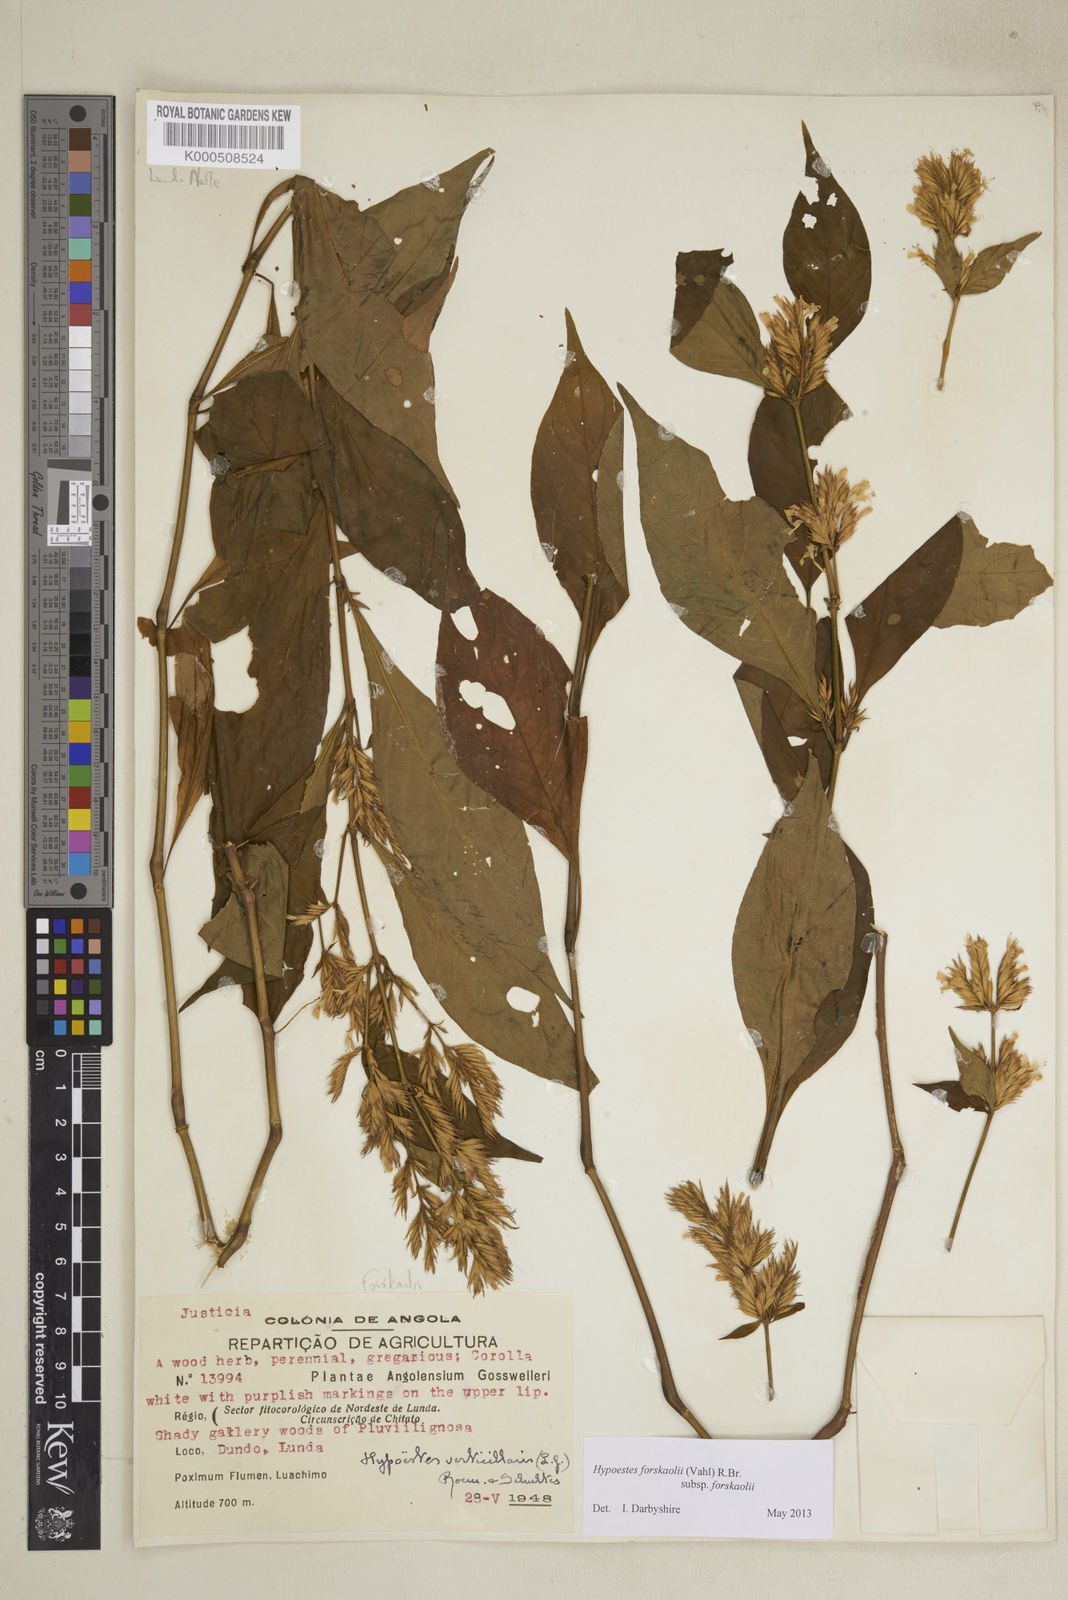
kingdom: Plantae
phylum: Tracheophyta
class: Magnoliopsida
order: Lamiales
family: Acanthaceae
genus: Hypoestes
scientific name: Hypoestes forskaolii
